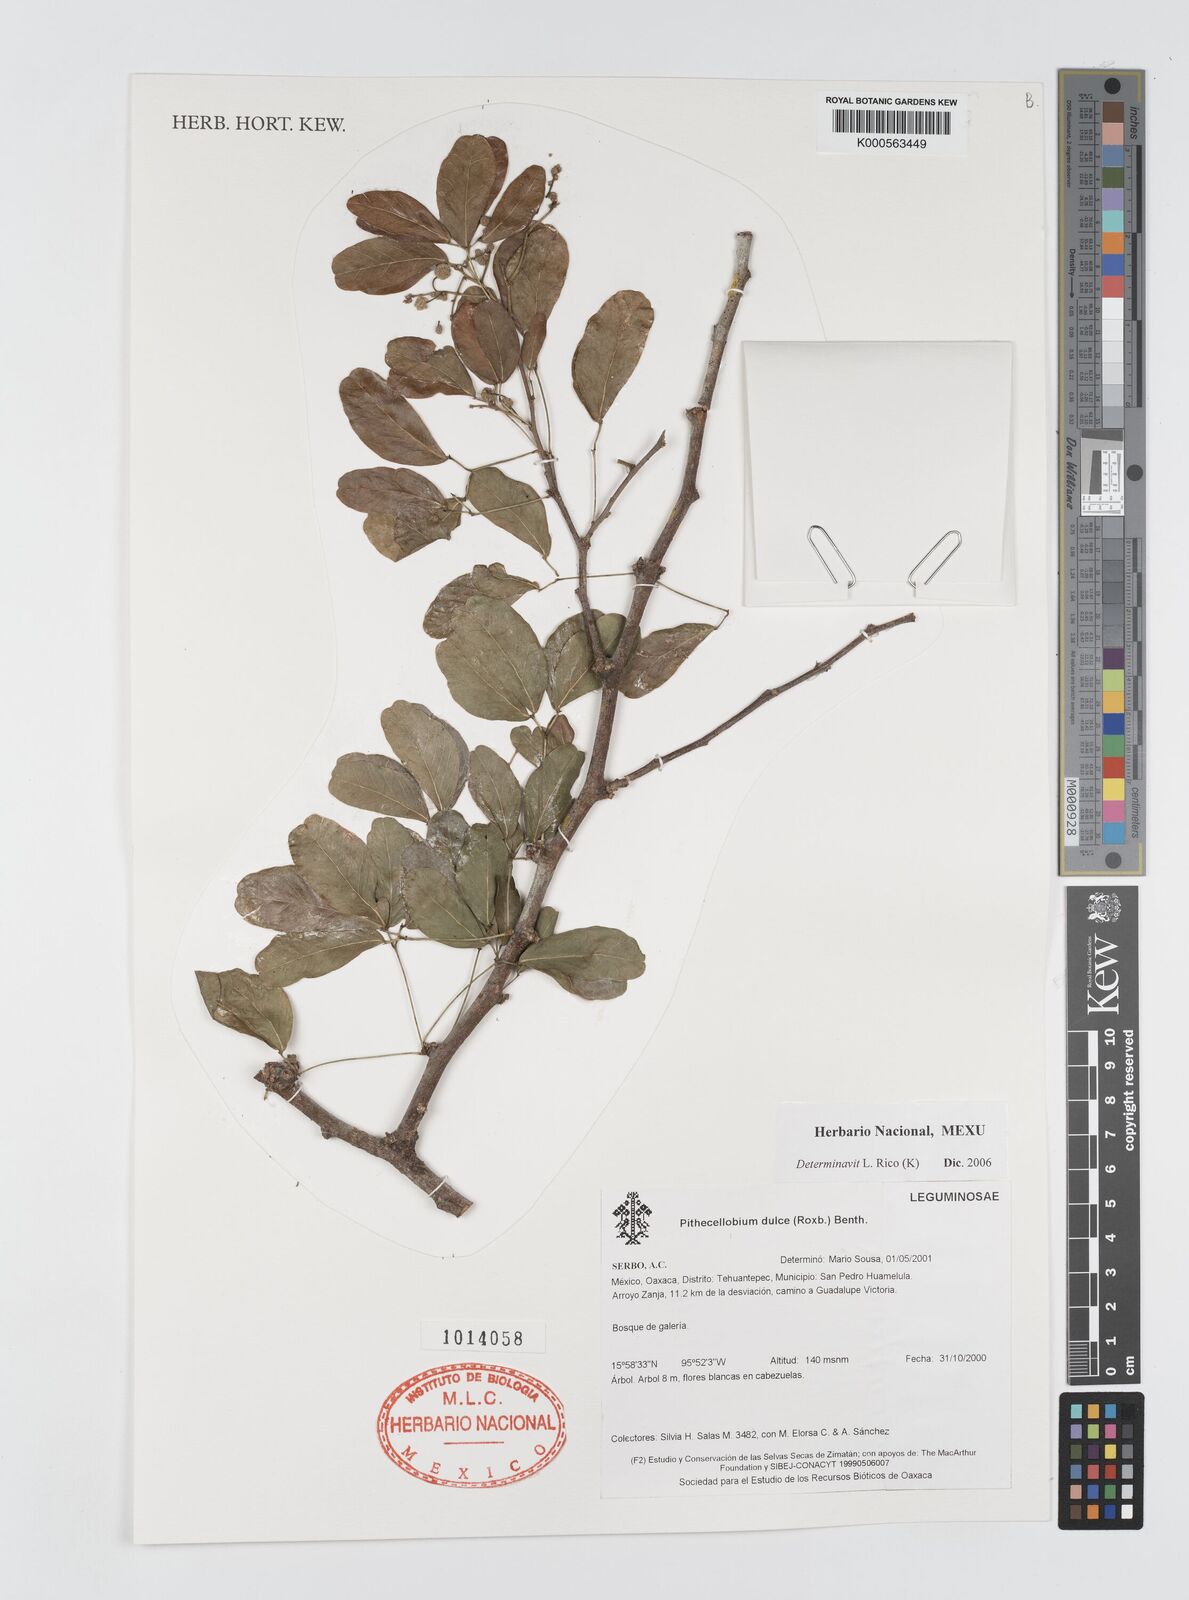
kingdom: Plantae
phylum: Tracheophyta
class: Magnoliopsida
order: Fabales
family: Fabaceae
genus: Pithecellobium
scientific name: Pithecellobium dulce
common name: Monkeypod
